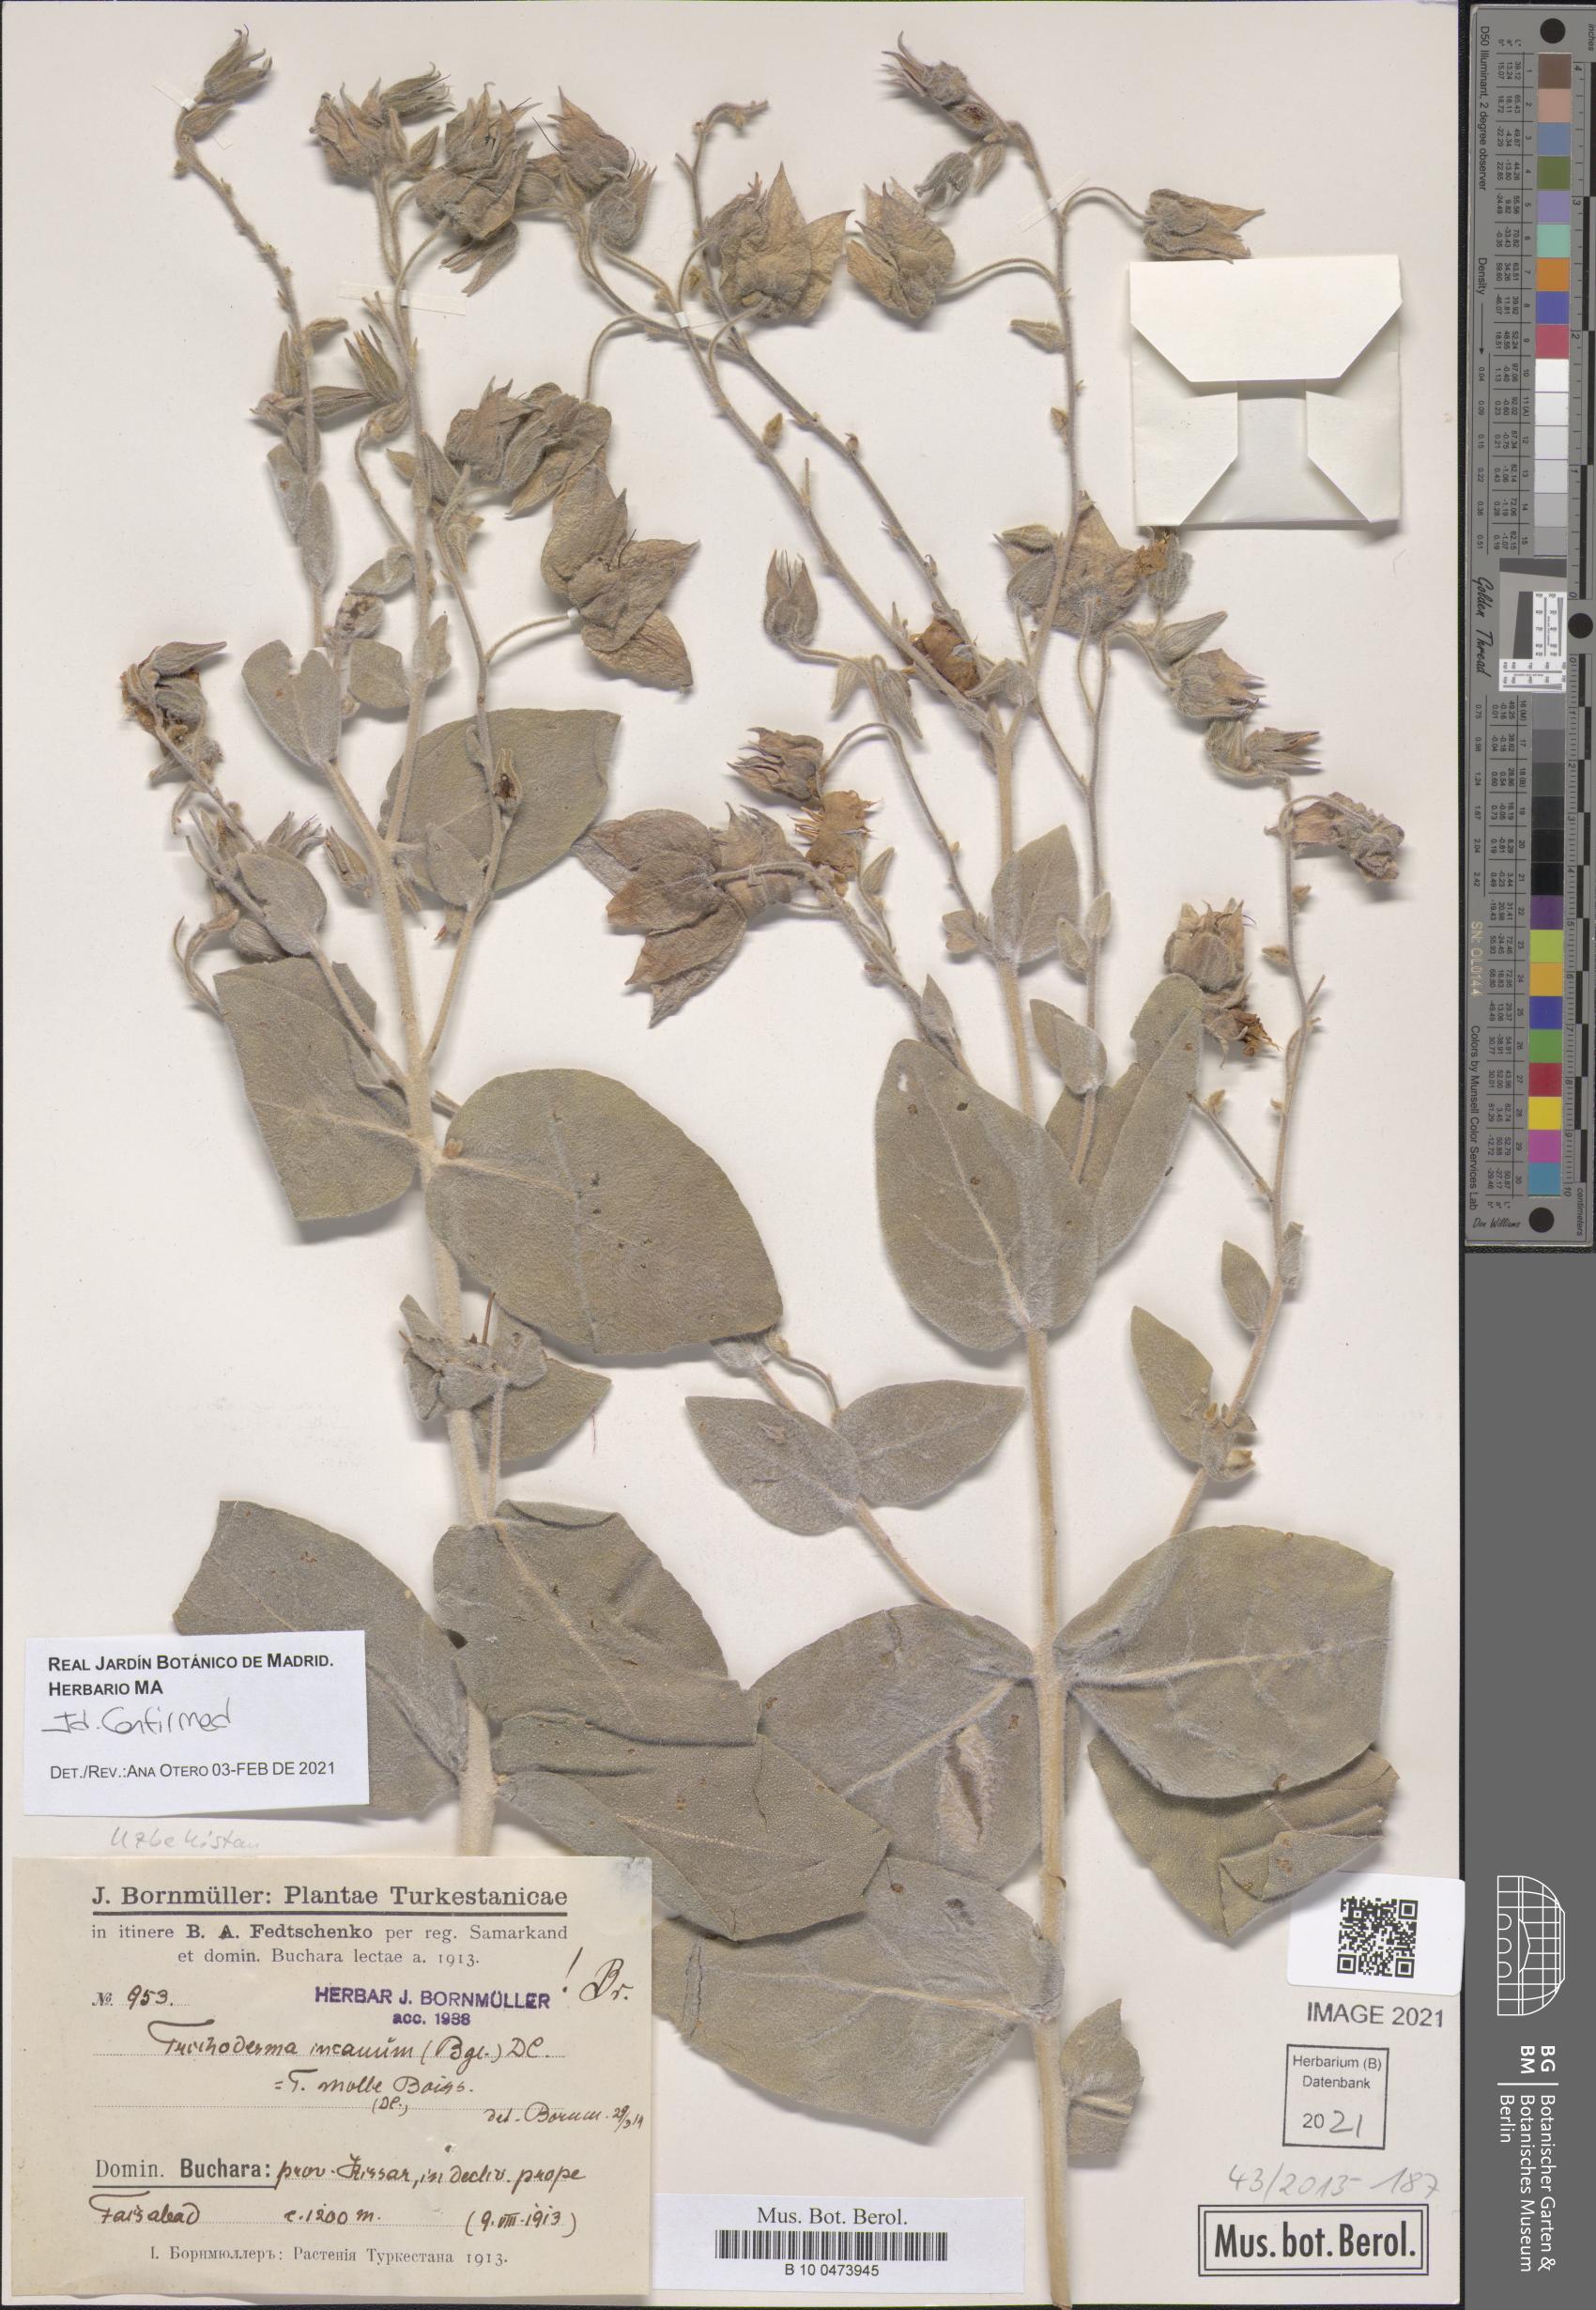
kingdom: Plantae
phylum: Tracheophyta
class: Magnoliopsida
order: Boraginales
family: Boraginaceae
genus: Trichodesma
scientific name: Trichodesma incanum
